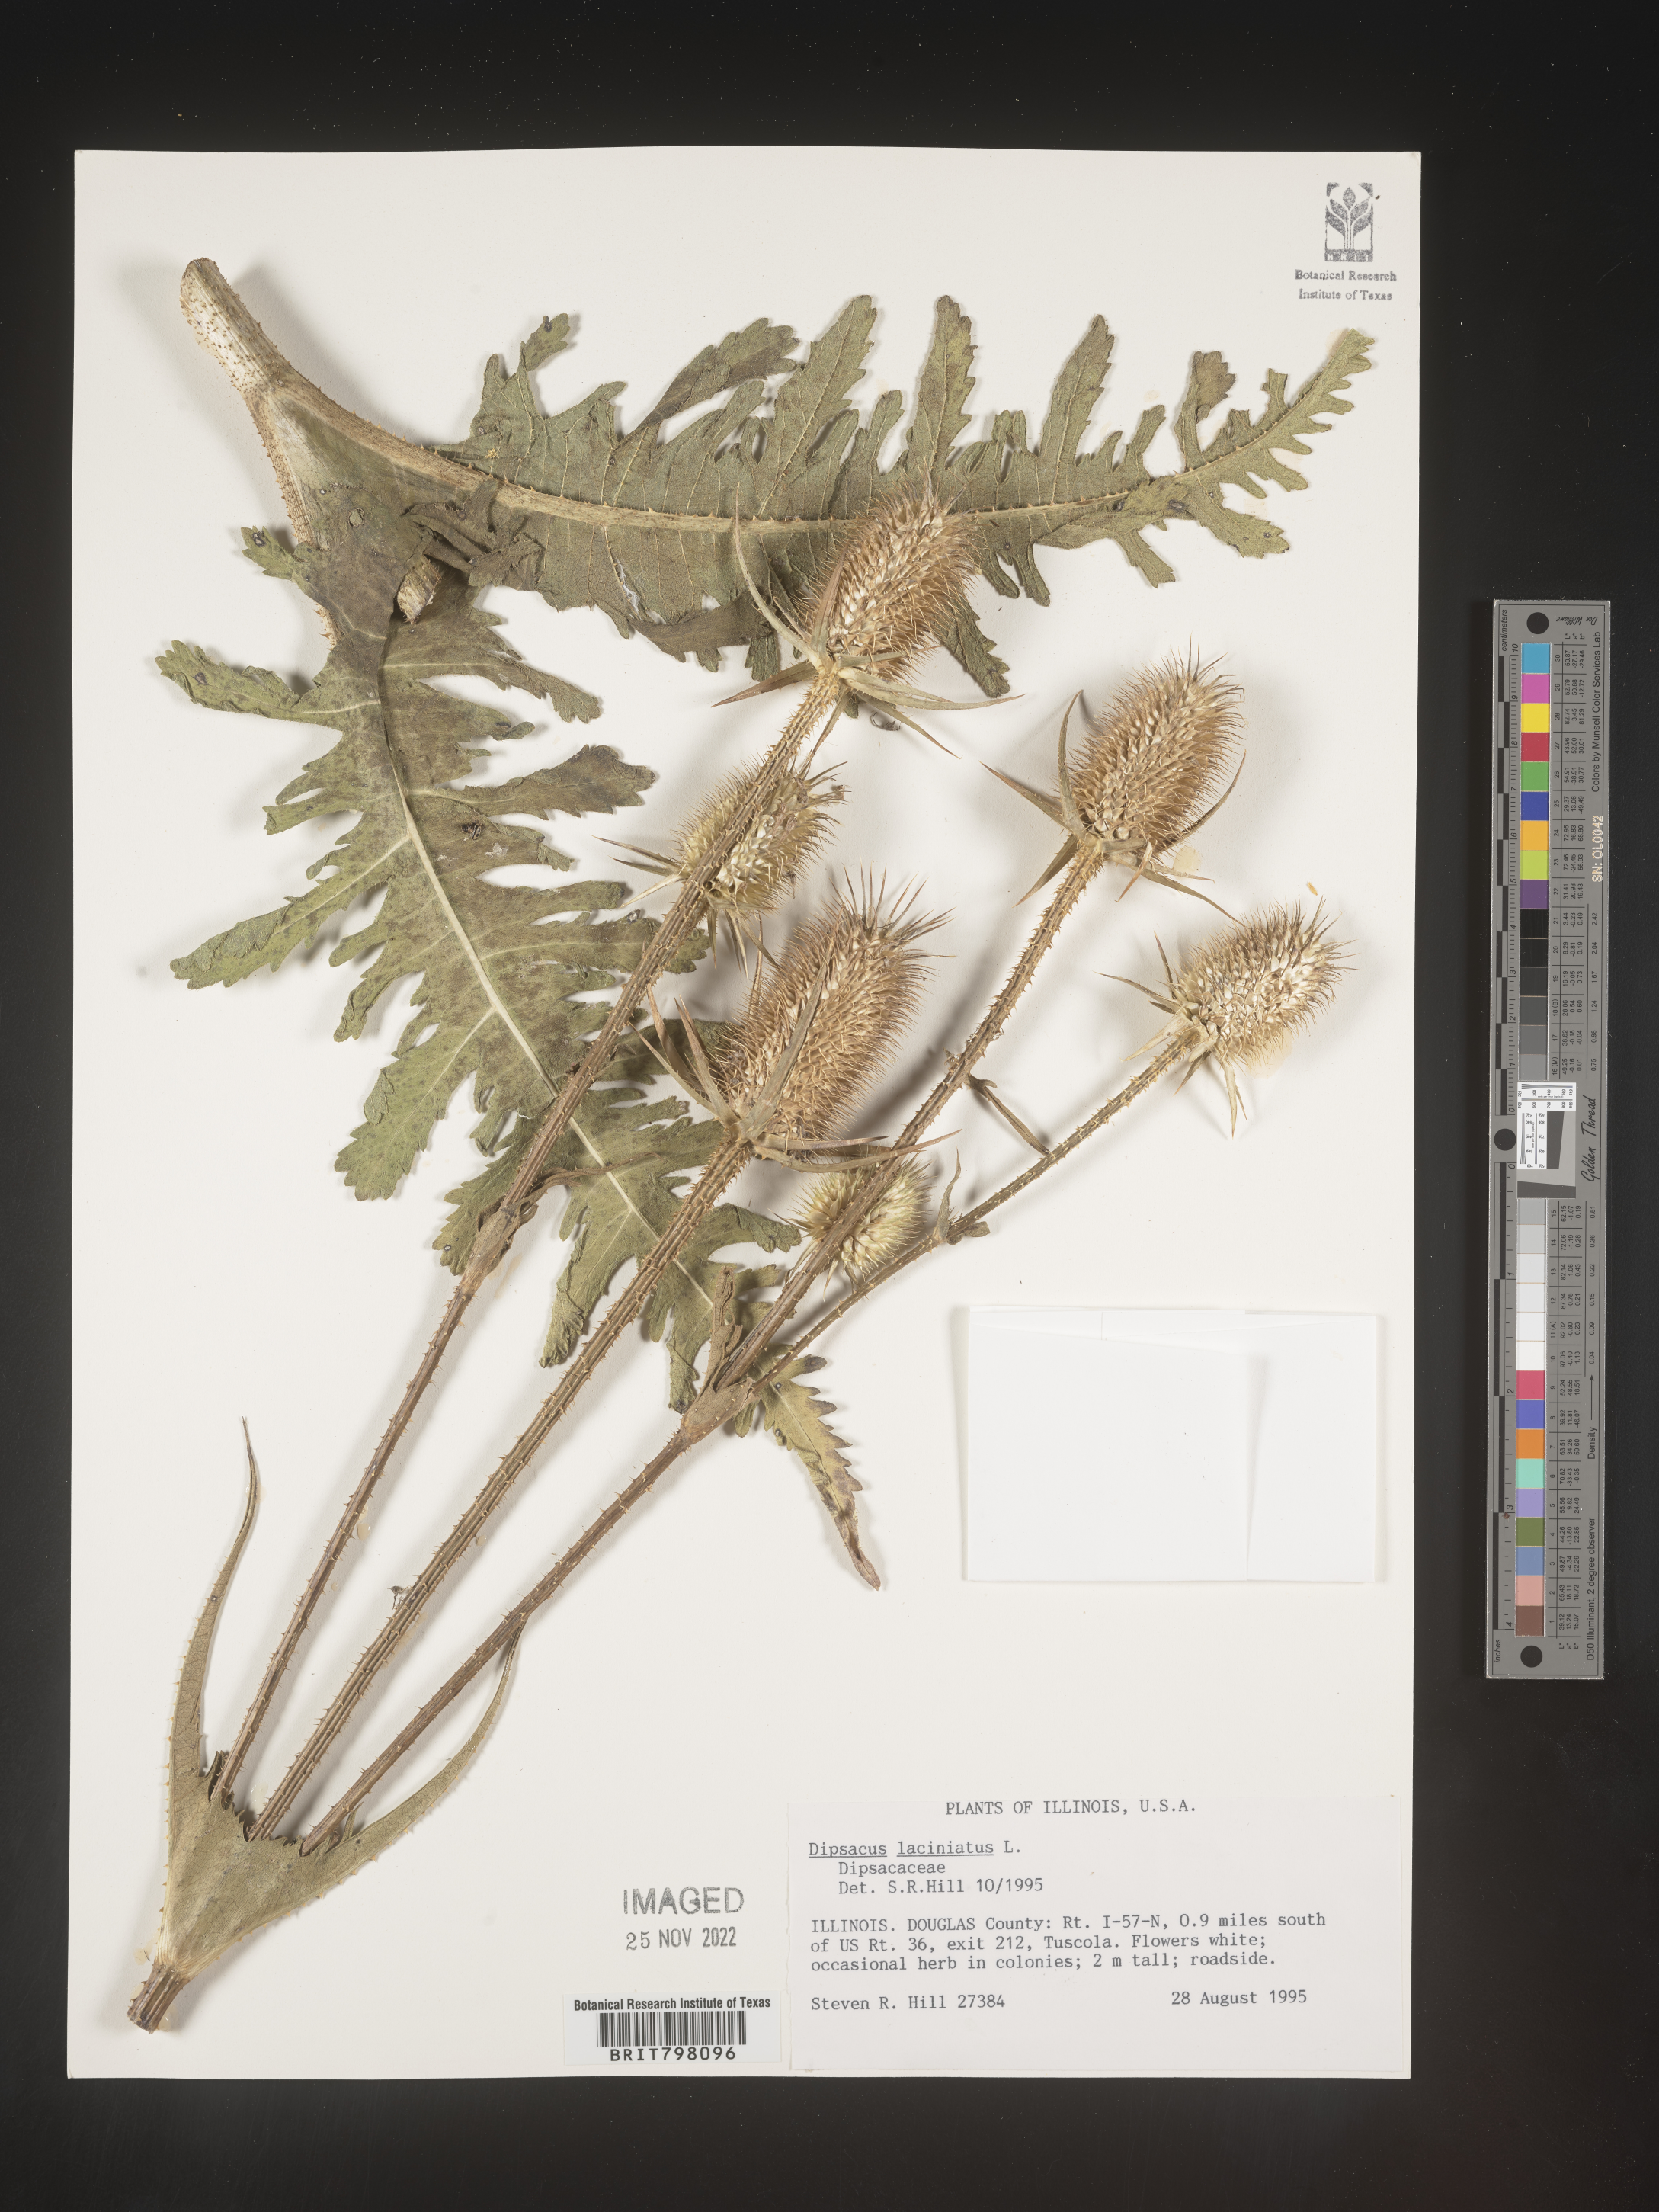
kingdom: Plantae
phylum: Tracheophyta
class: Magnoliopsida
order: Dipsacales
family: Caprifoliaceae
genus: Dipsacus
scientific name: Dipsacus
